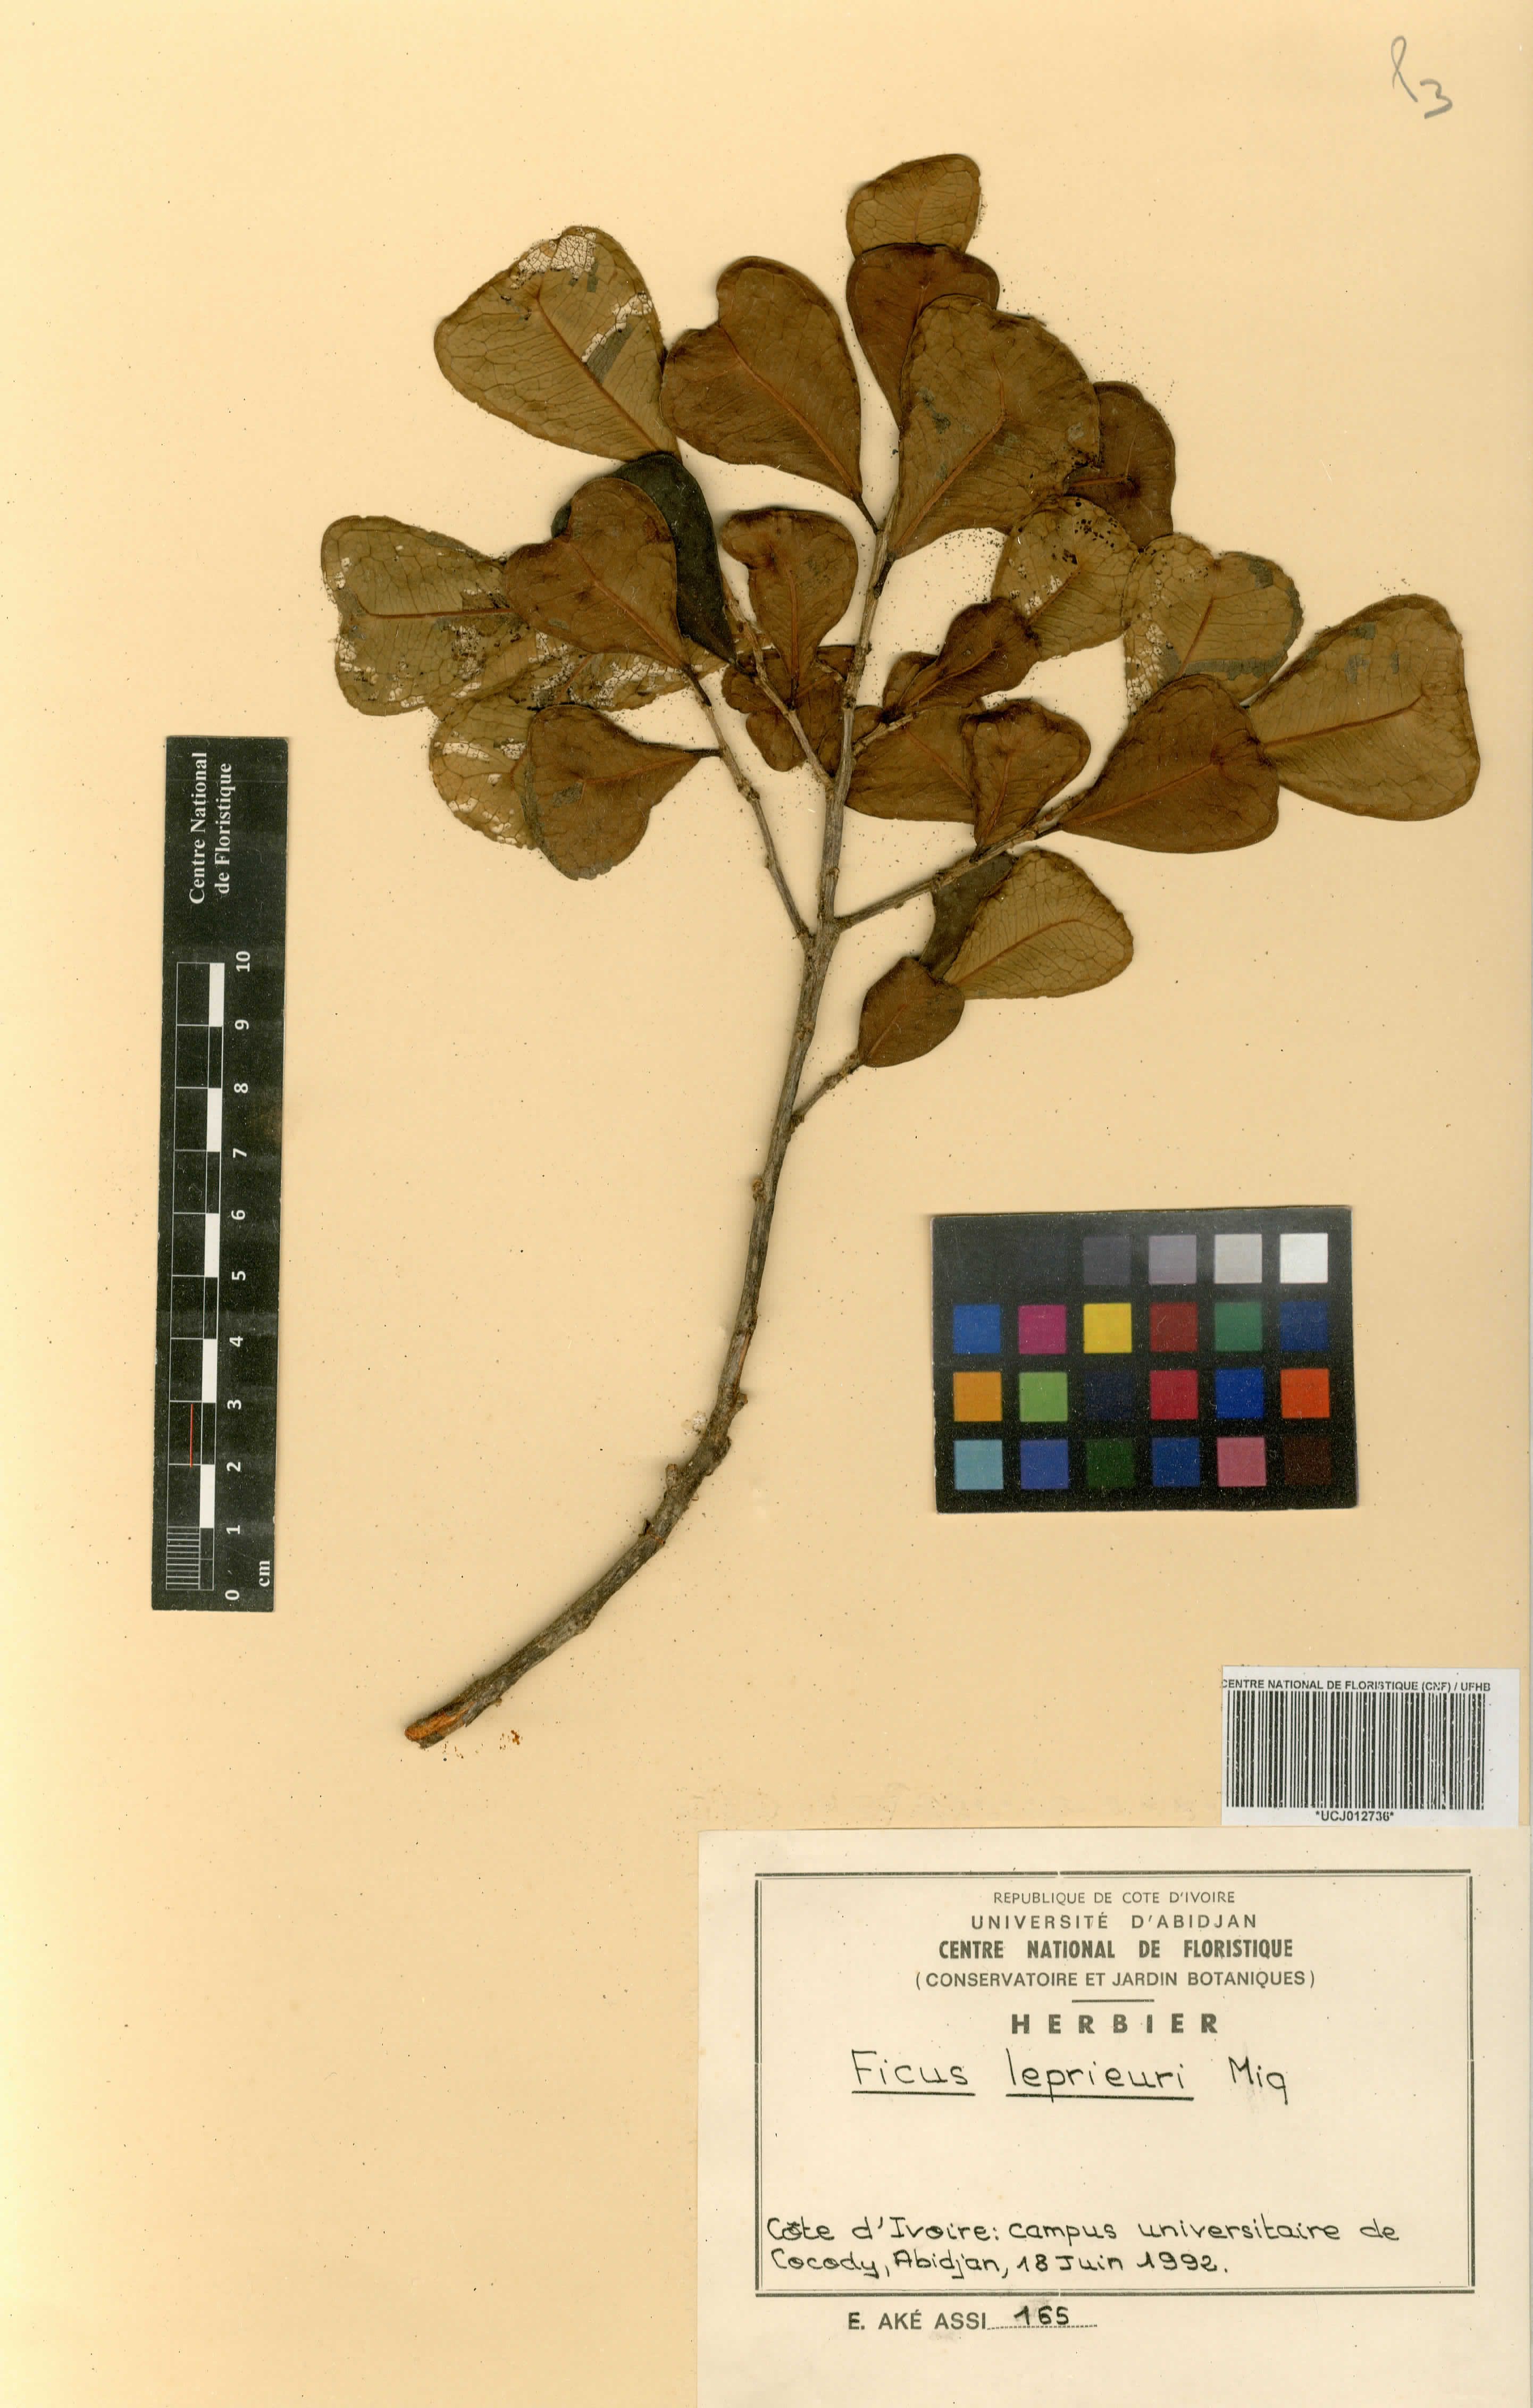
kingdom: Plantae
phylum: Tracheophyta
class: Magnoliopsida
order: Rosales
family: Moraceae
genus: Ficus
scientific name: Ficus natalensis
